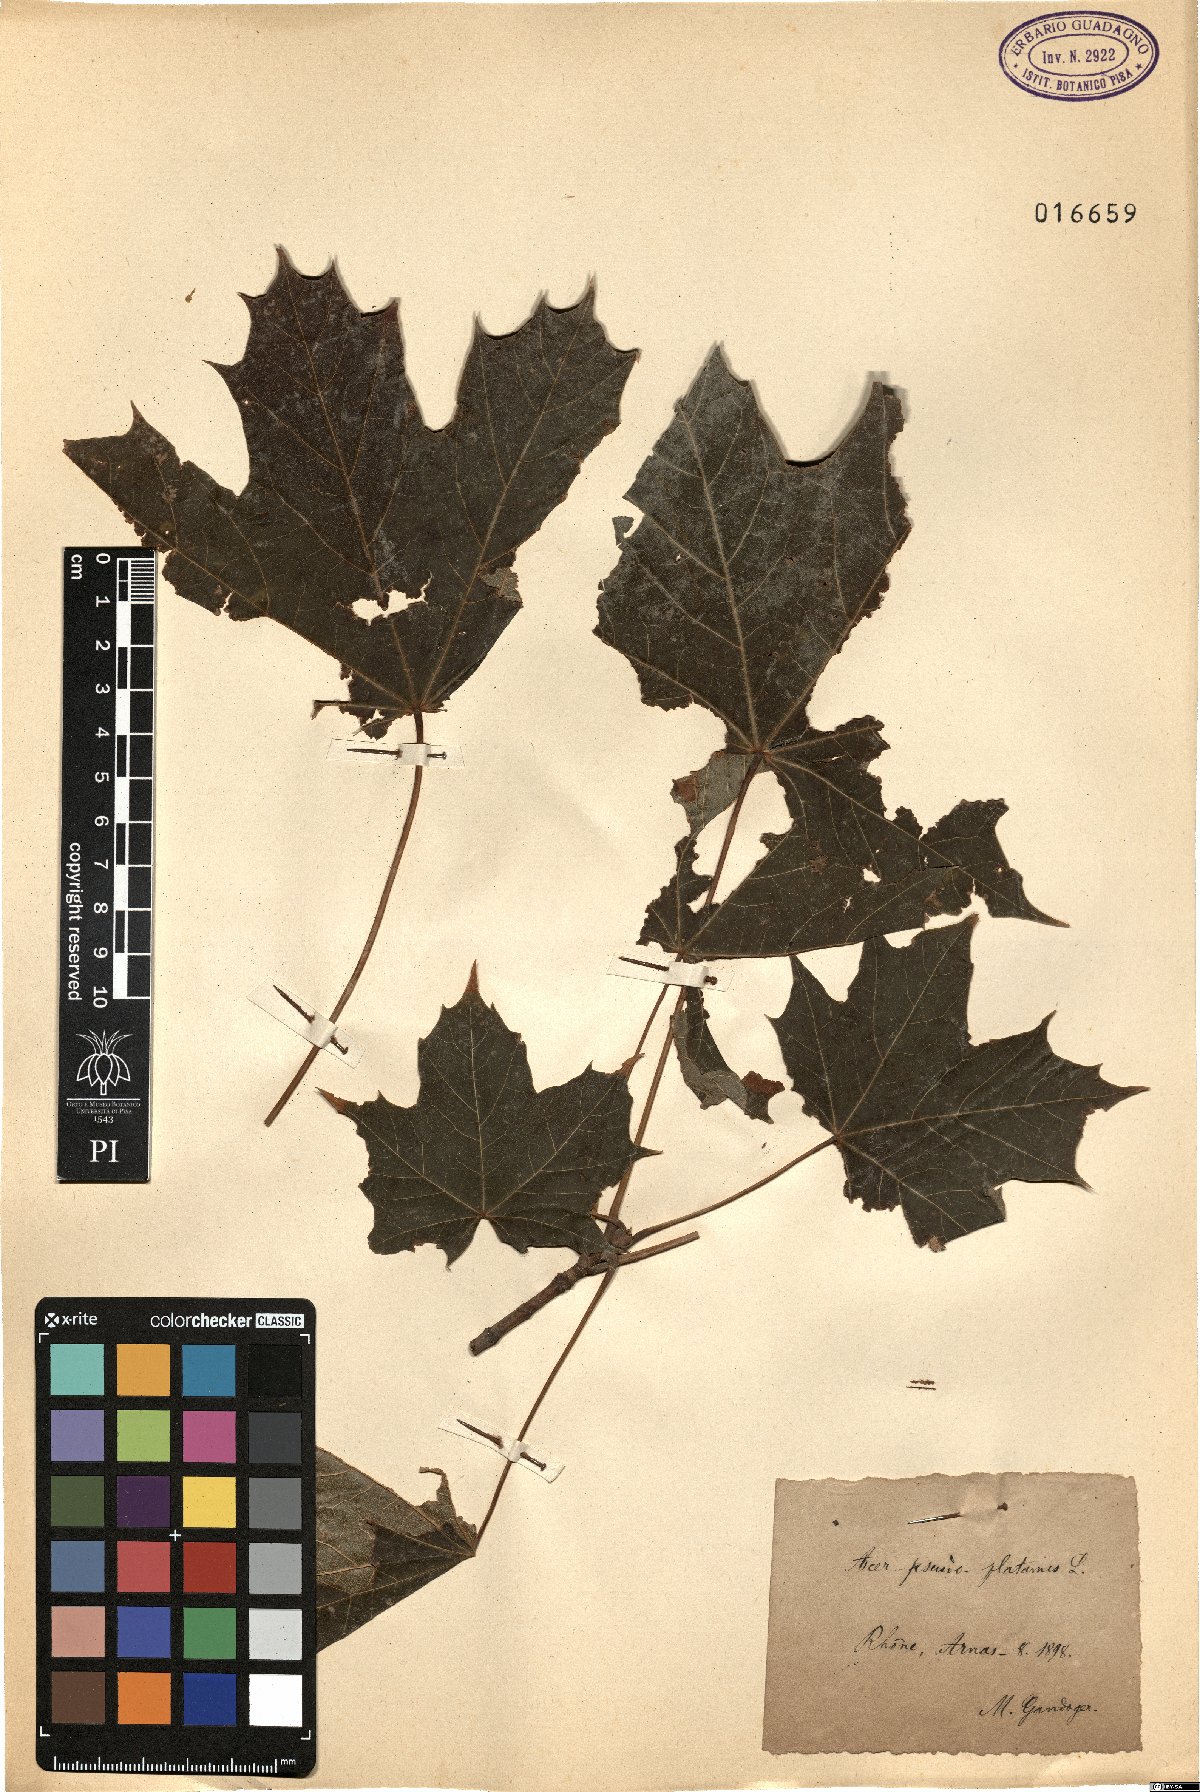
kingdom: Plantae
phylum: Tracheophyta
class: Magnoliopsida
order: Sapindales
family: Sapindaceae
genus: Acer
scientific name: Acer pseudoplatanus
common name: Sycamore
